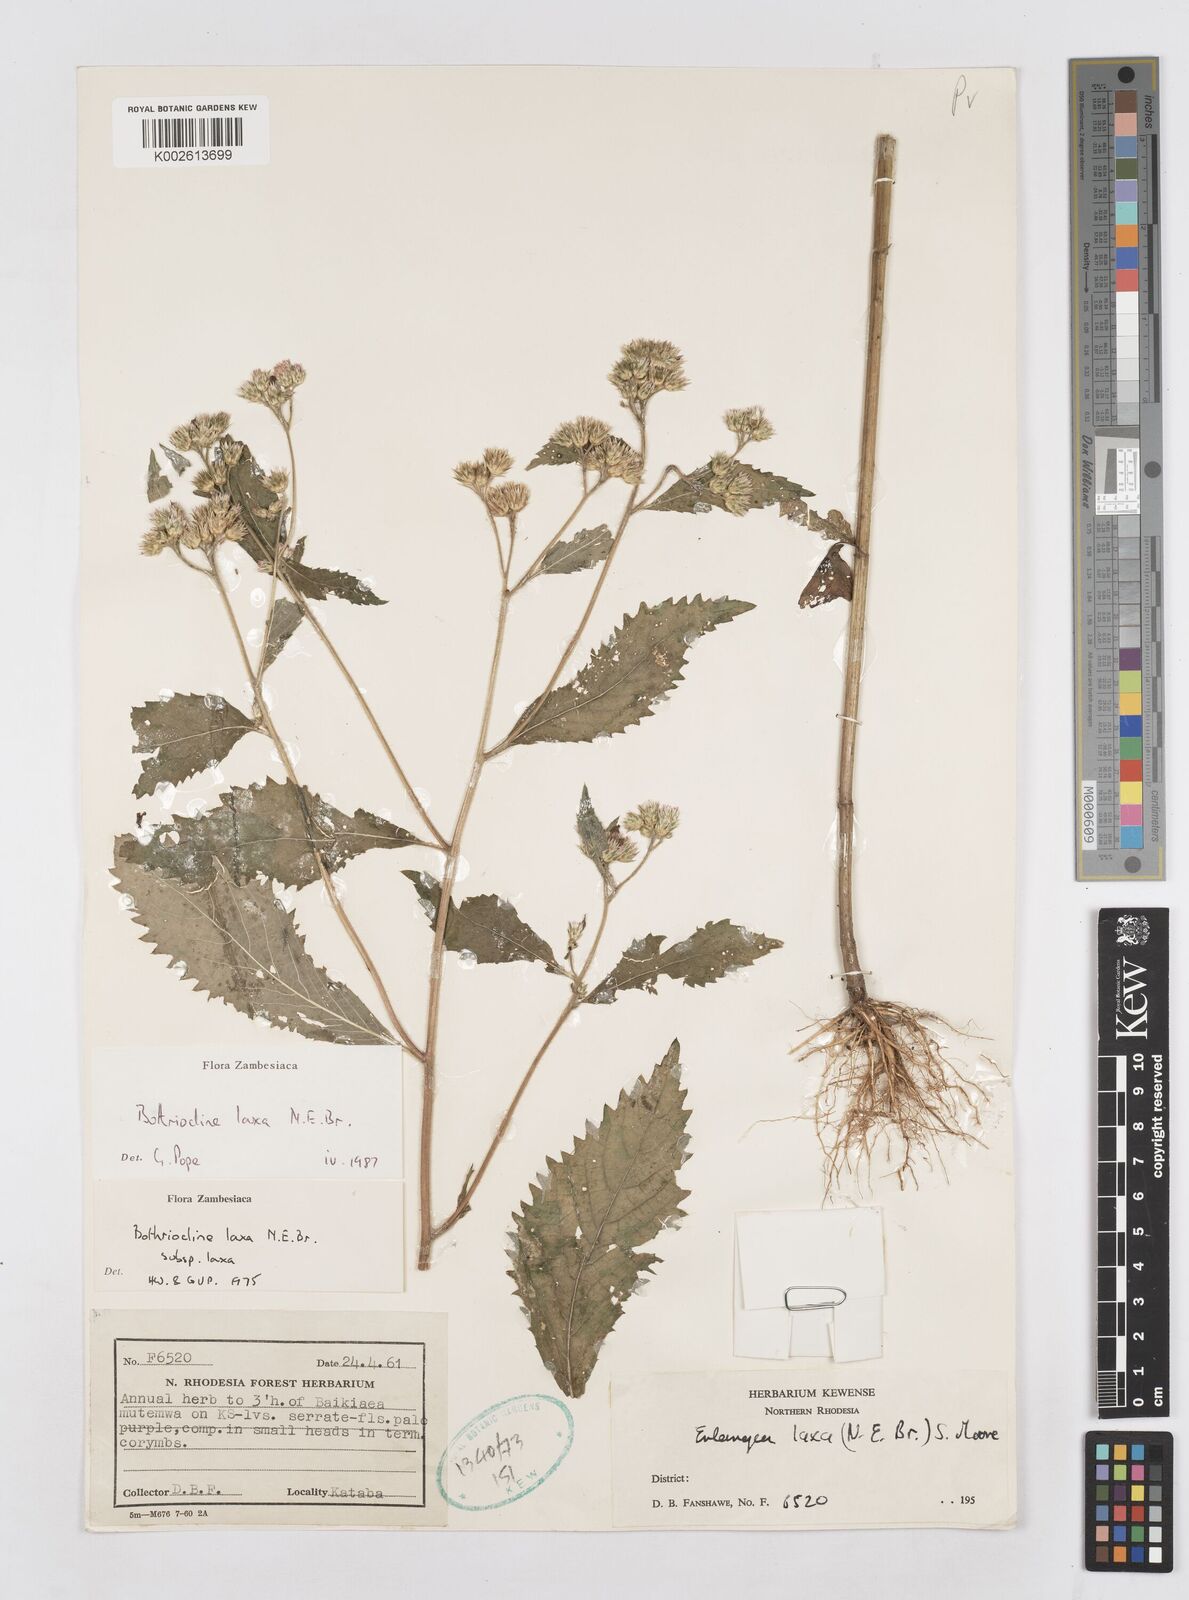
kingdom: Plantae
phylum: Tracheophyta
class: Magnoliopsida
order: Asterales
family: Asteraceae
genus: Bothriocline
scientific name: Bothriocline laxa
